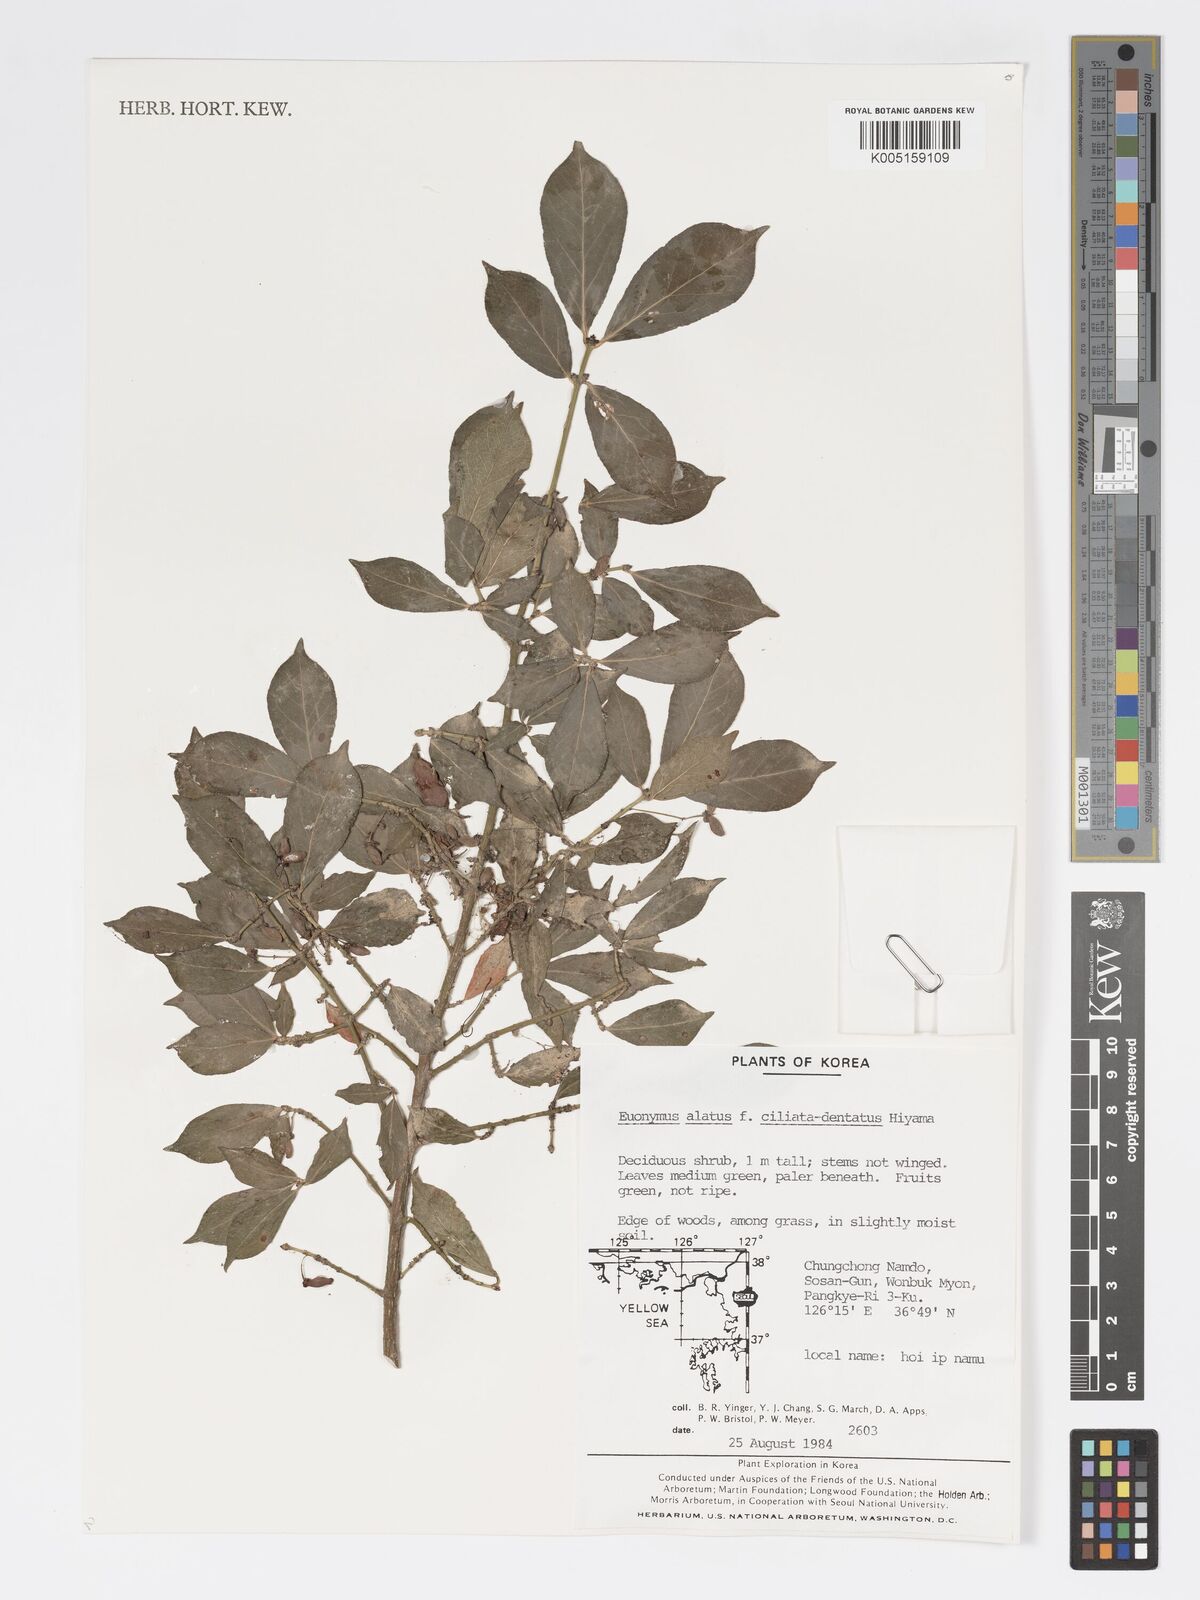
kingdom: Plantae
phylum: Tracheophyta
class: Magnoliopsida
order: Celastrales
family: Celastraceae
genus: Euonymus
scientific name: Euonymus
